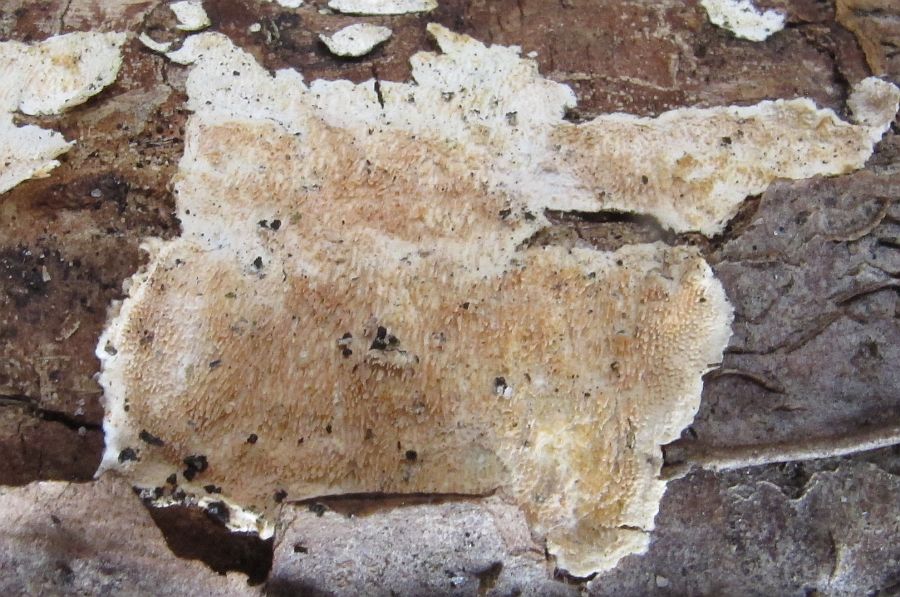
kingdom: Fungi
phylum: Basidiomycota
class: Agaricomycetes
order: Polyporales
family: Steccherinaceae
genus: Steccherinum
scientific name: Steccherinum ochraceum
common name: almindelig skønpig
